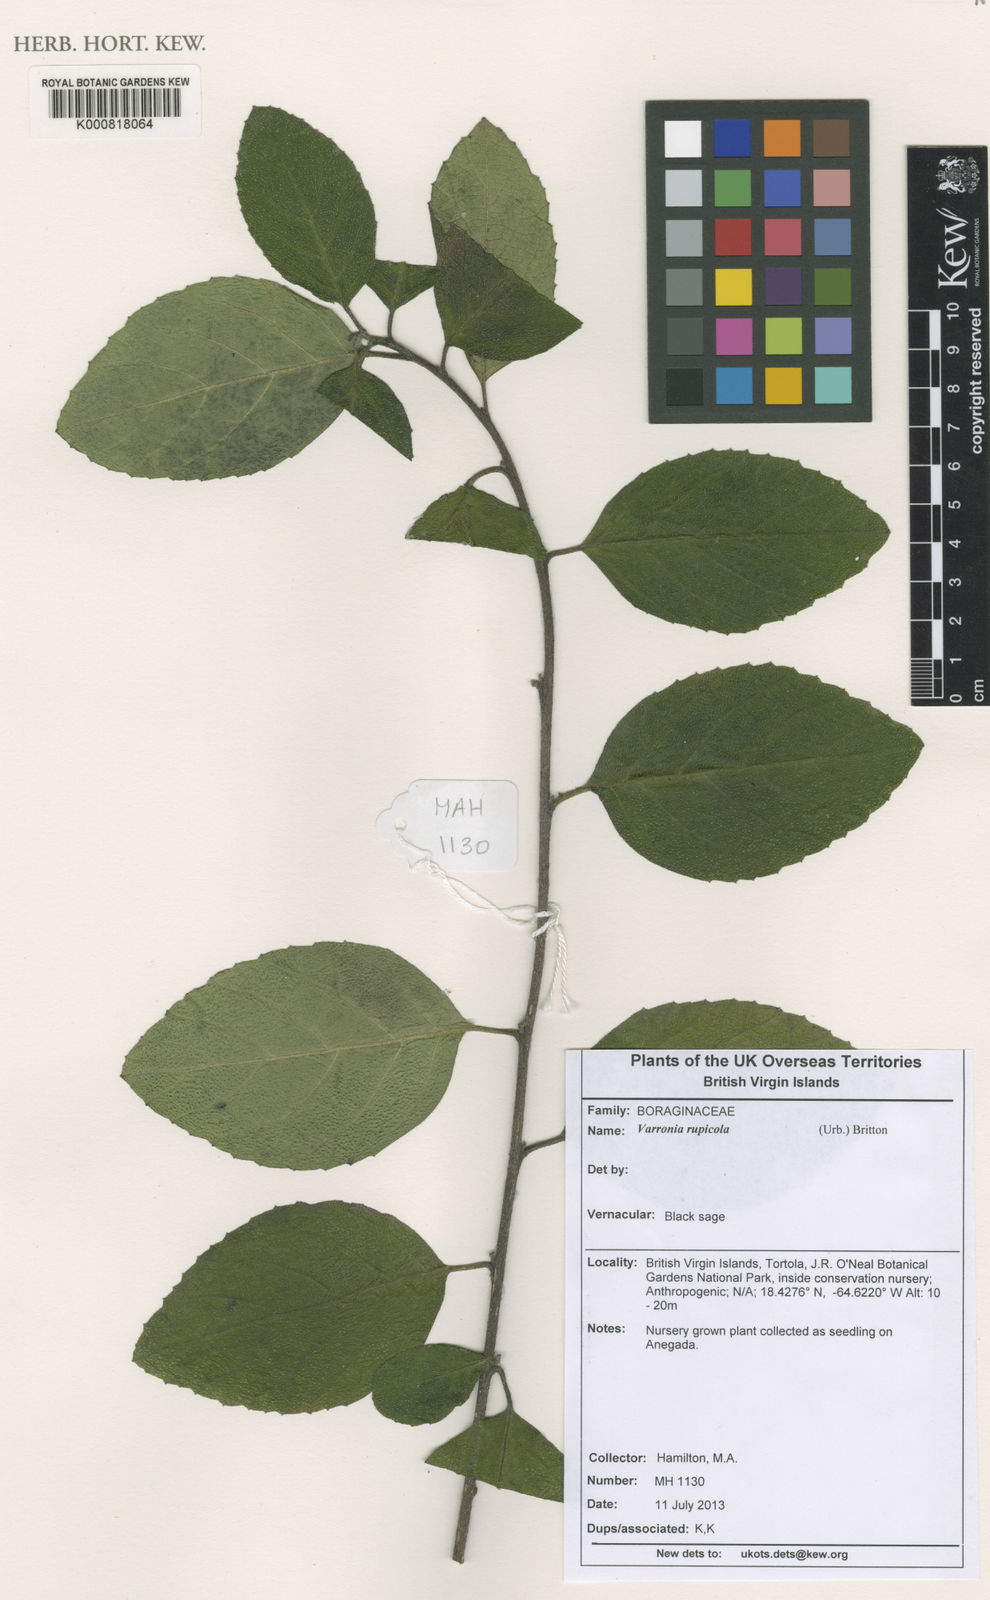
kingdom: Plantae
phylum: Tracheophyta
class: Magnoliopsida
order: Boraginales
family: Cordiaceae
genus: Varronia
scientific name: Varronia rupicola
